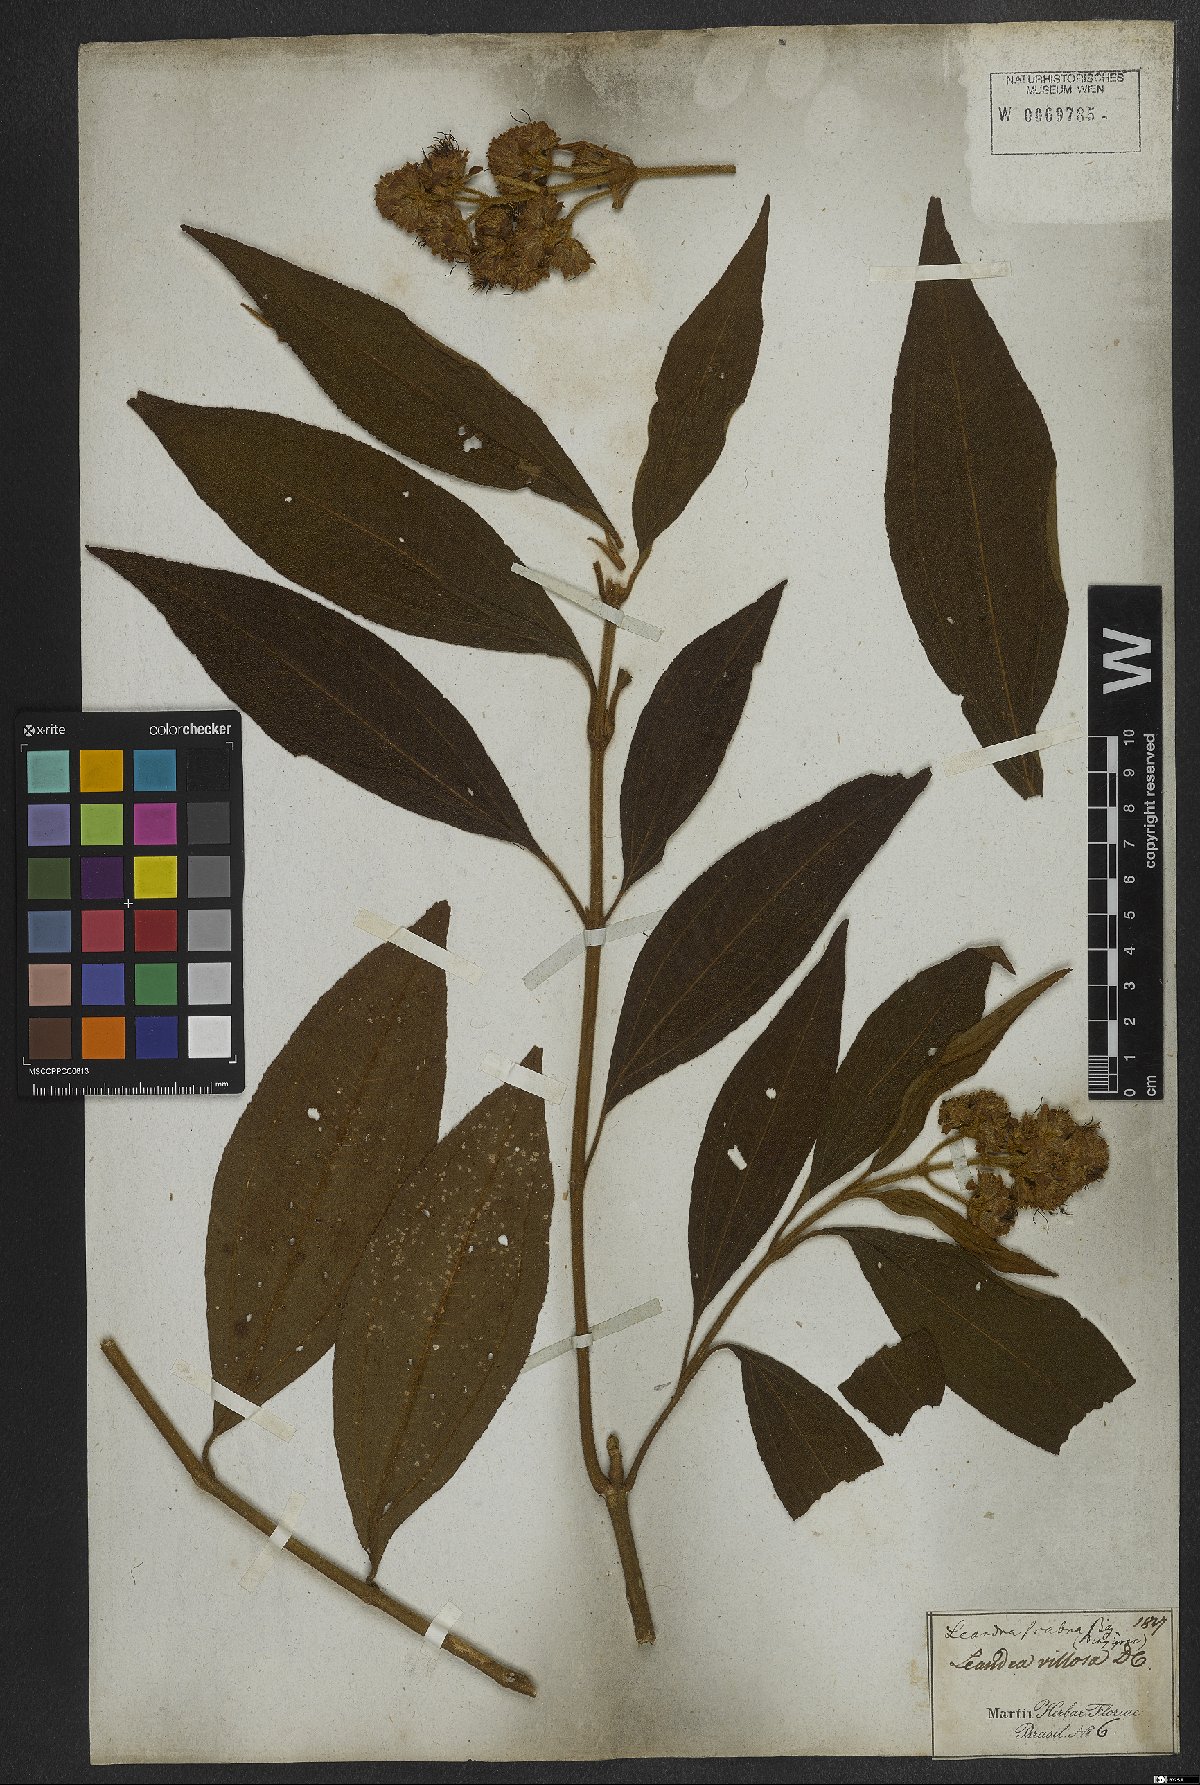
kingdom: Plantae
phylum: Tracheophyta
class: Magnoliopsida
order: Myrtales
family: Melastomataceae
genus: Miconia
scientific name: Miconia melastomoides
